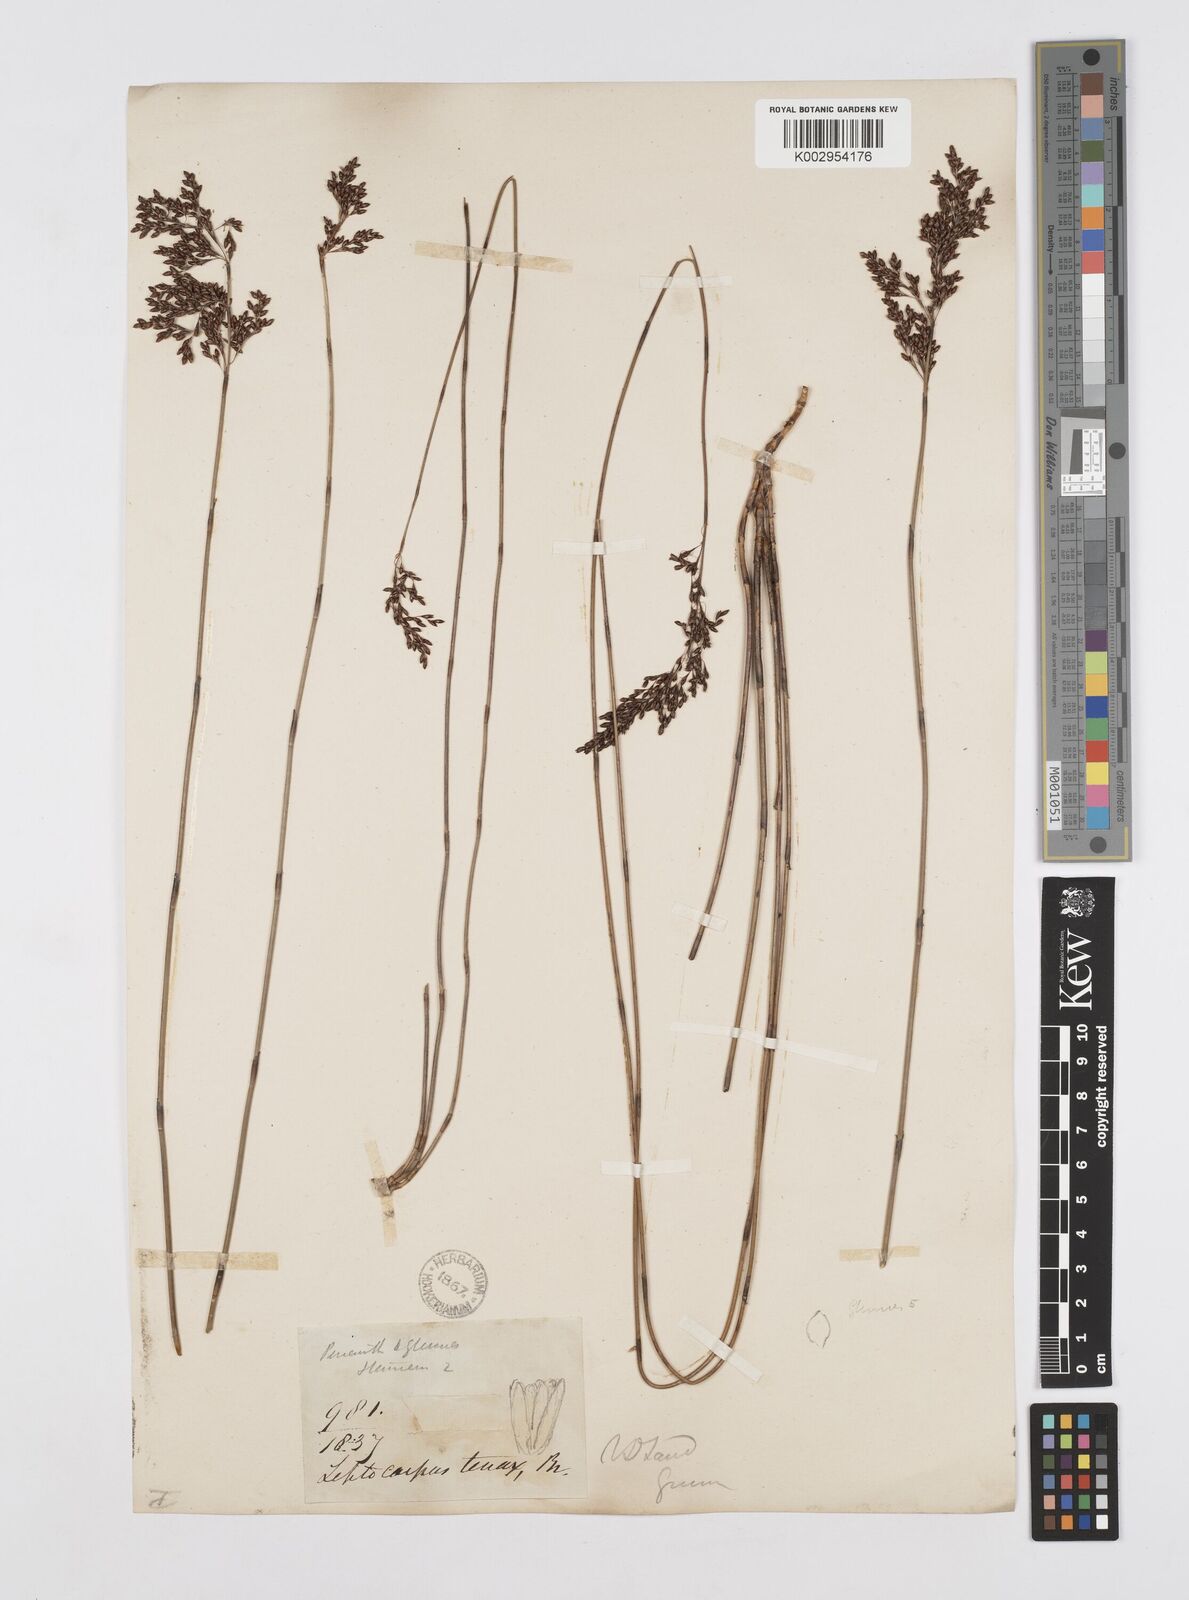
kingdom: Plantae
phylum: Tracheophyta
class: Liliopsida
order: Poales
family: Restionaceae
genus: Leptocarpus
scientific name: Leptocarpus tenax
